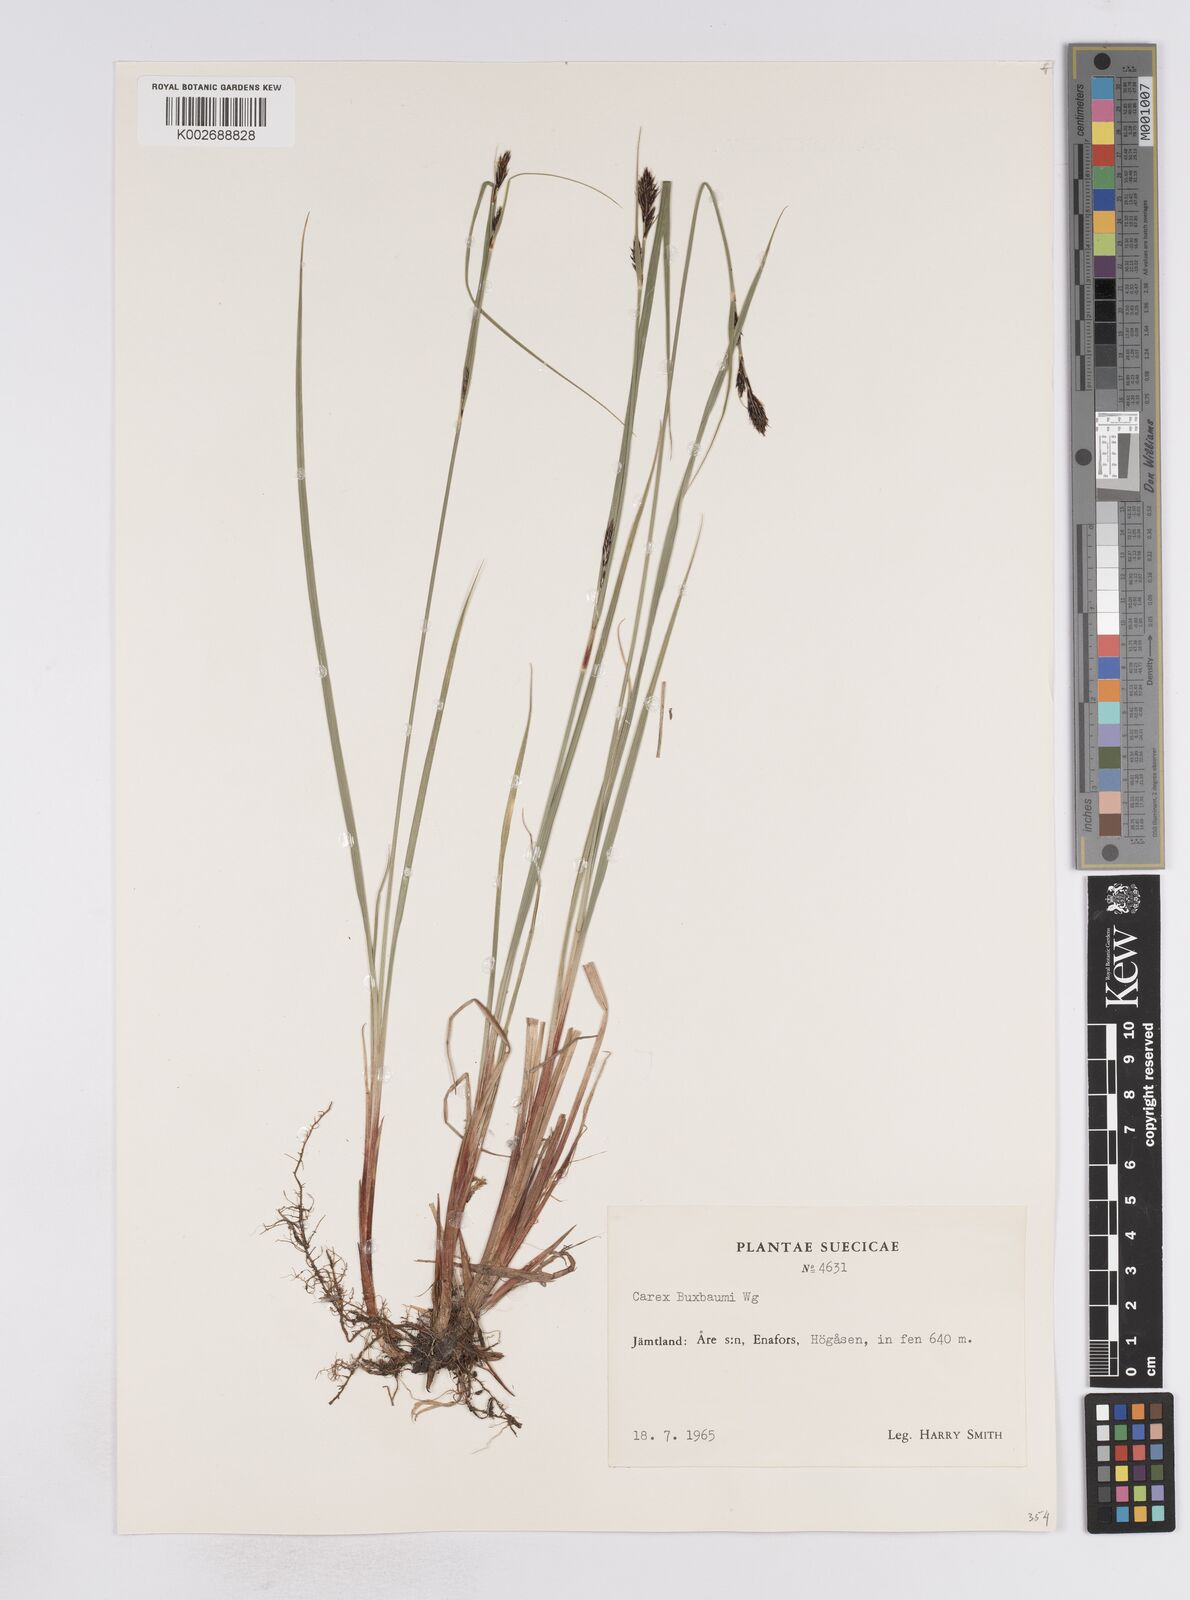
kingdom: Plantae
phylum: Tracheophyta
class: Liliopsida
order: Poales
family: Cyperaceae
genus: Carex
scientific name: Carex buxbaumii
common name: Club sedge
